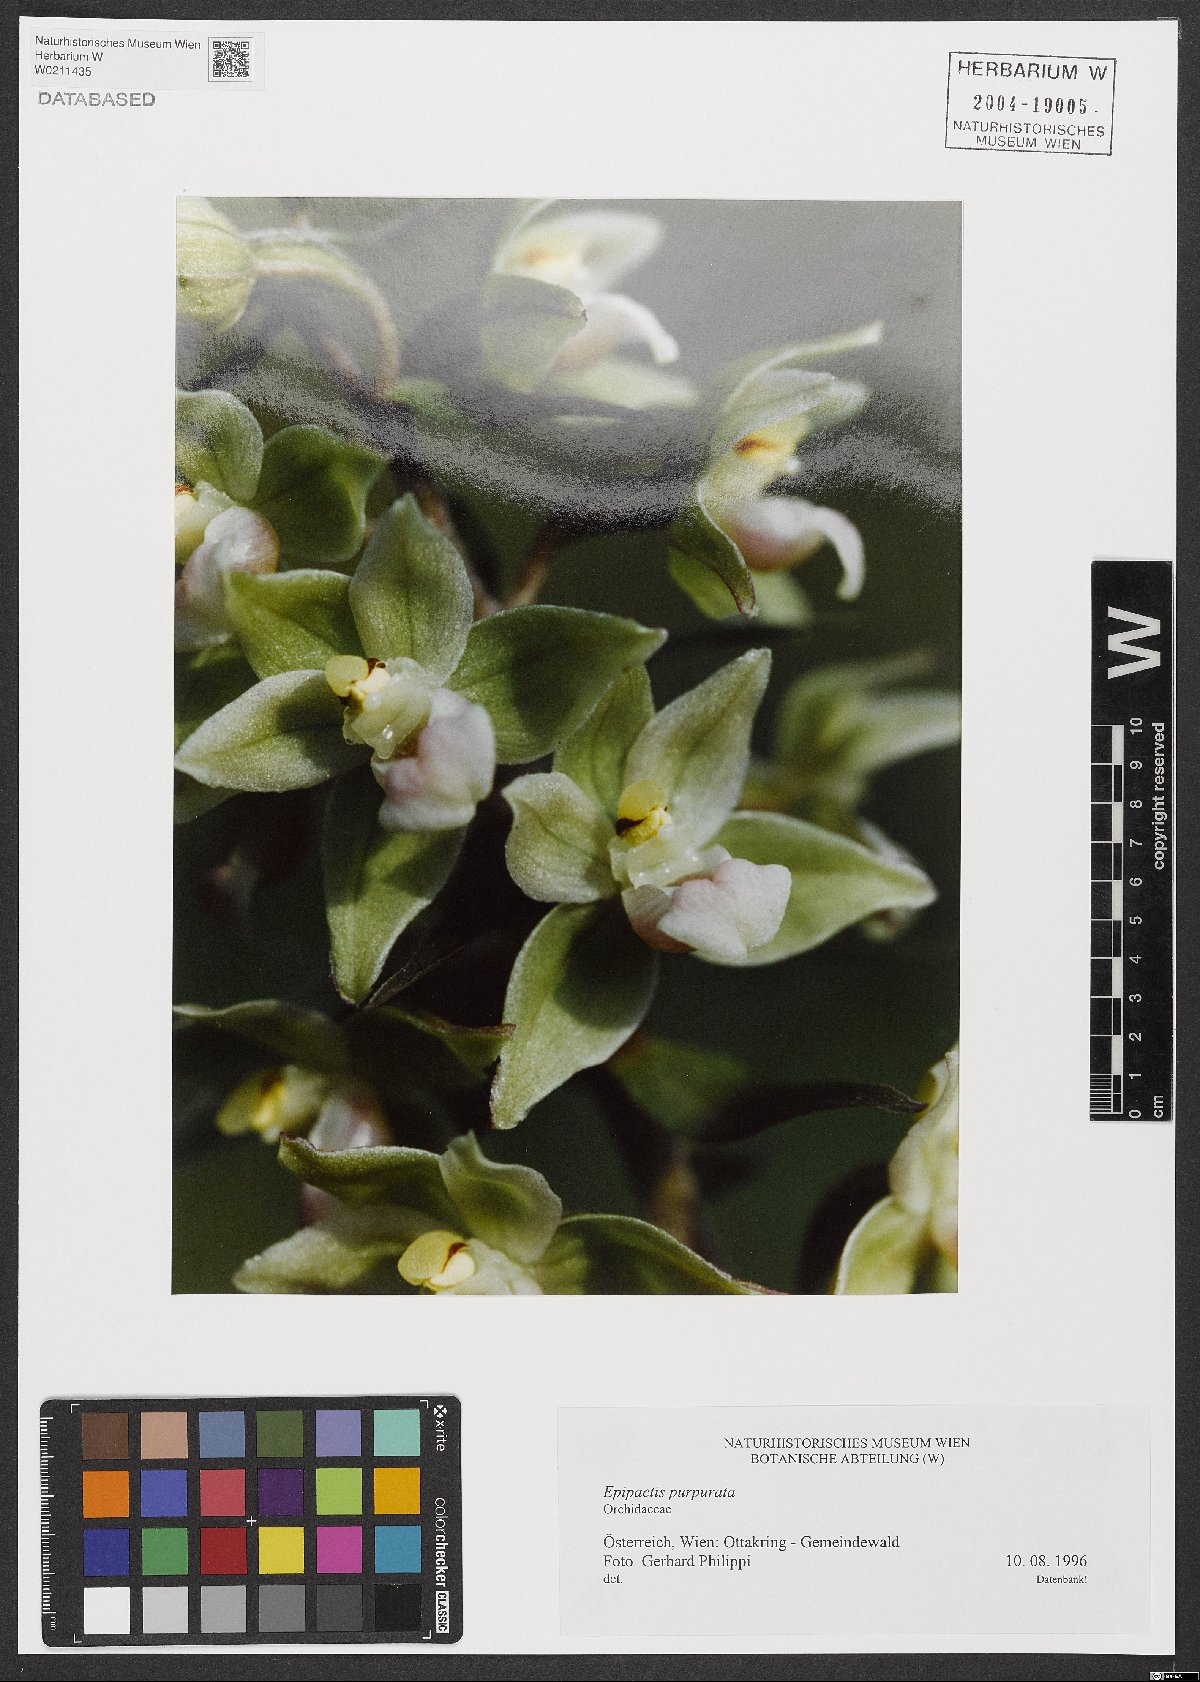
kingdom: Plantae
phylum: Tracheophyta
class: Liliopsida
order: Asparagales
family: Orchidaceae
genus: Epipactis
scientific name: Epipactis purpurata
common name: Violet helleborine
